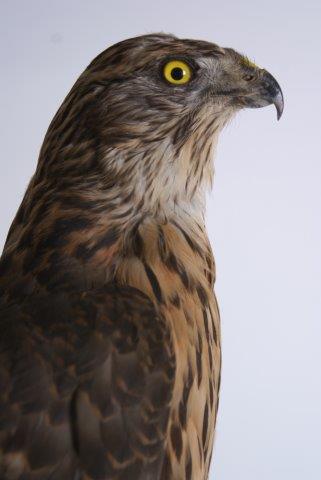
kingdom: Animalia
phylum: Chordata
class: Aves
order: Accipitriformes
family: Accipitridae
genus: Accipiter
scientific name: Accipiter gentilis
